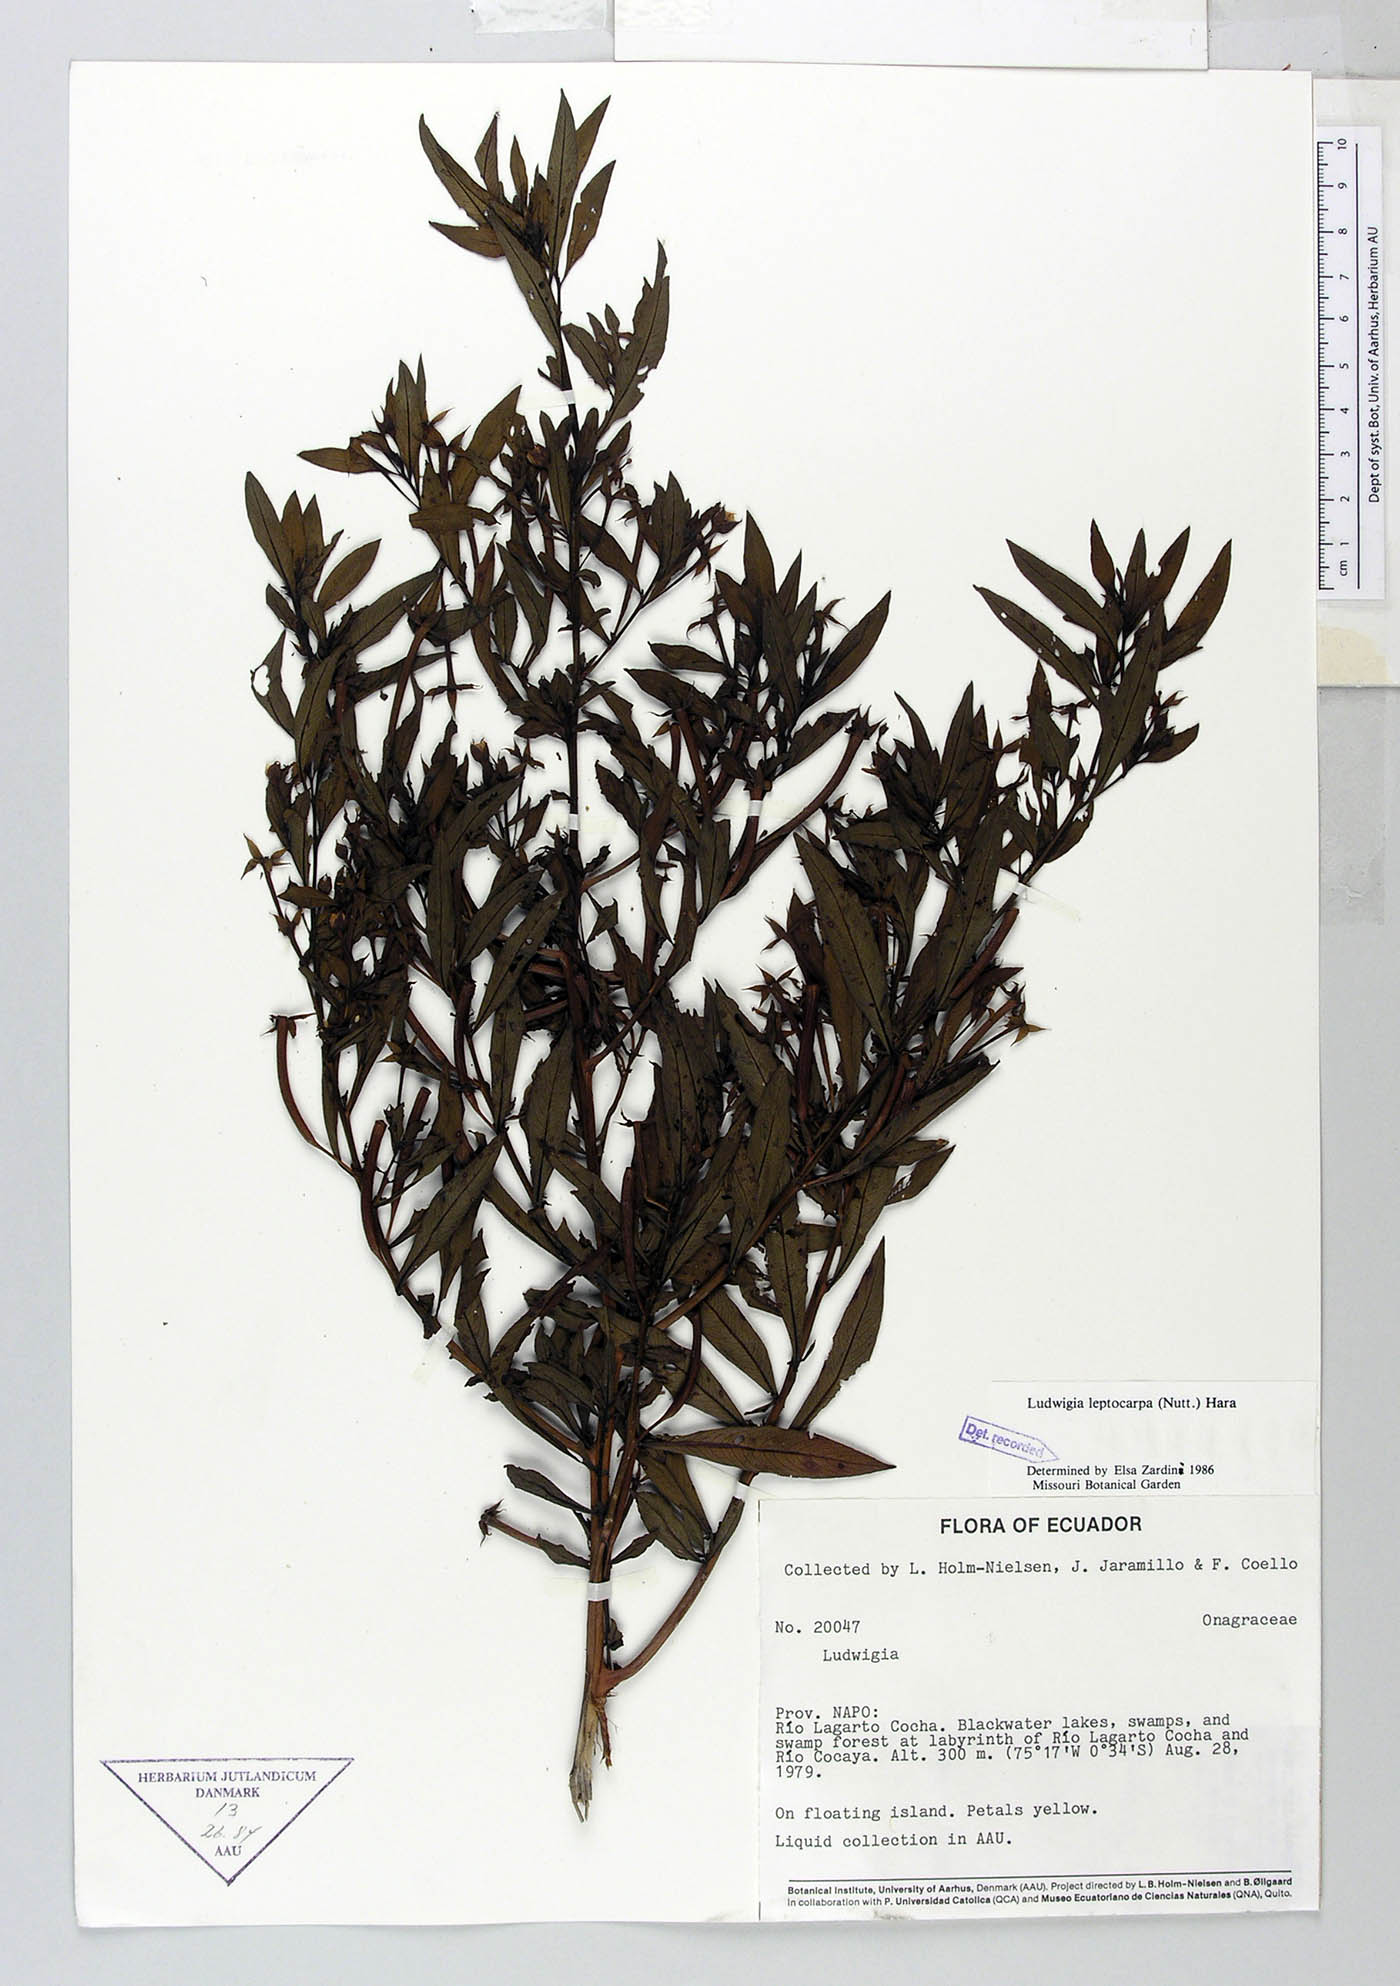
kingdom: Plantae
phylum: Tracheophyta
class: Magnoliopsida
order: Myrtales
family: Onagraceae
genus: Ludwigia
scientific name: Ludwigia leptocarpa
